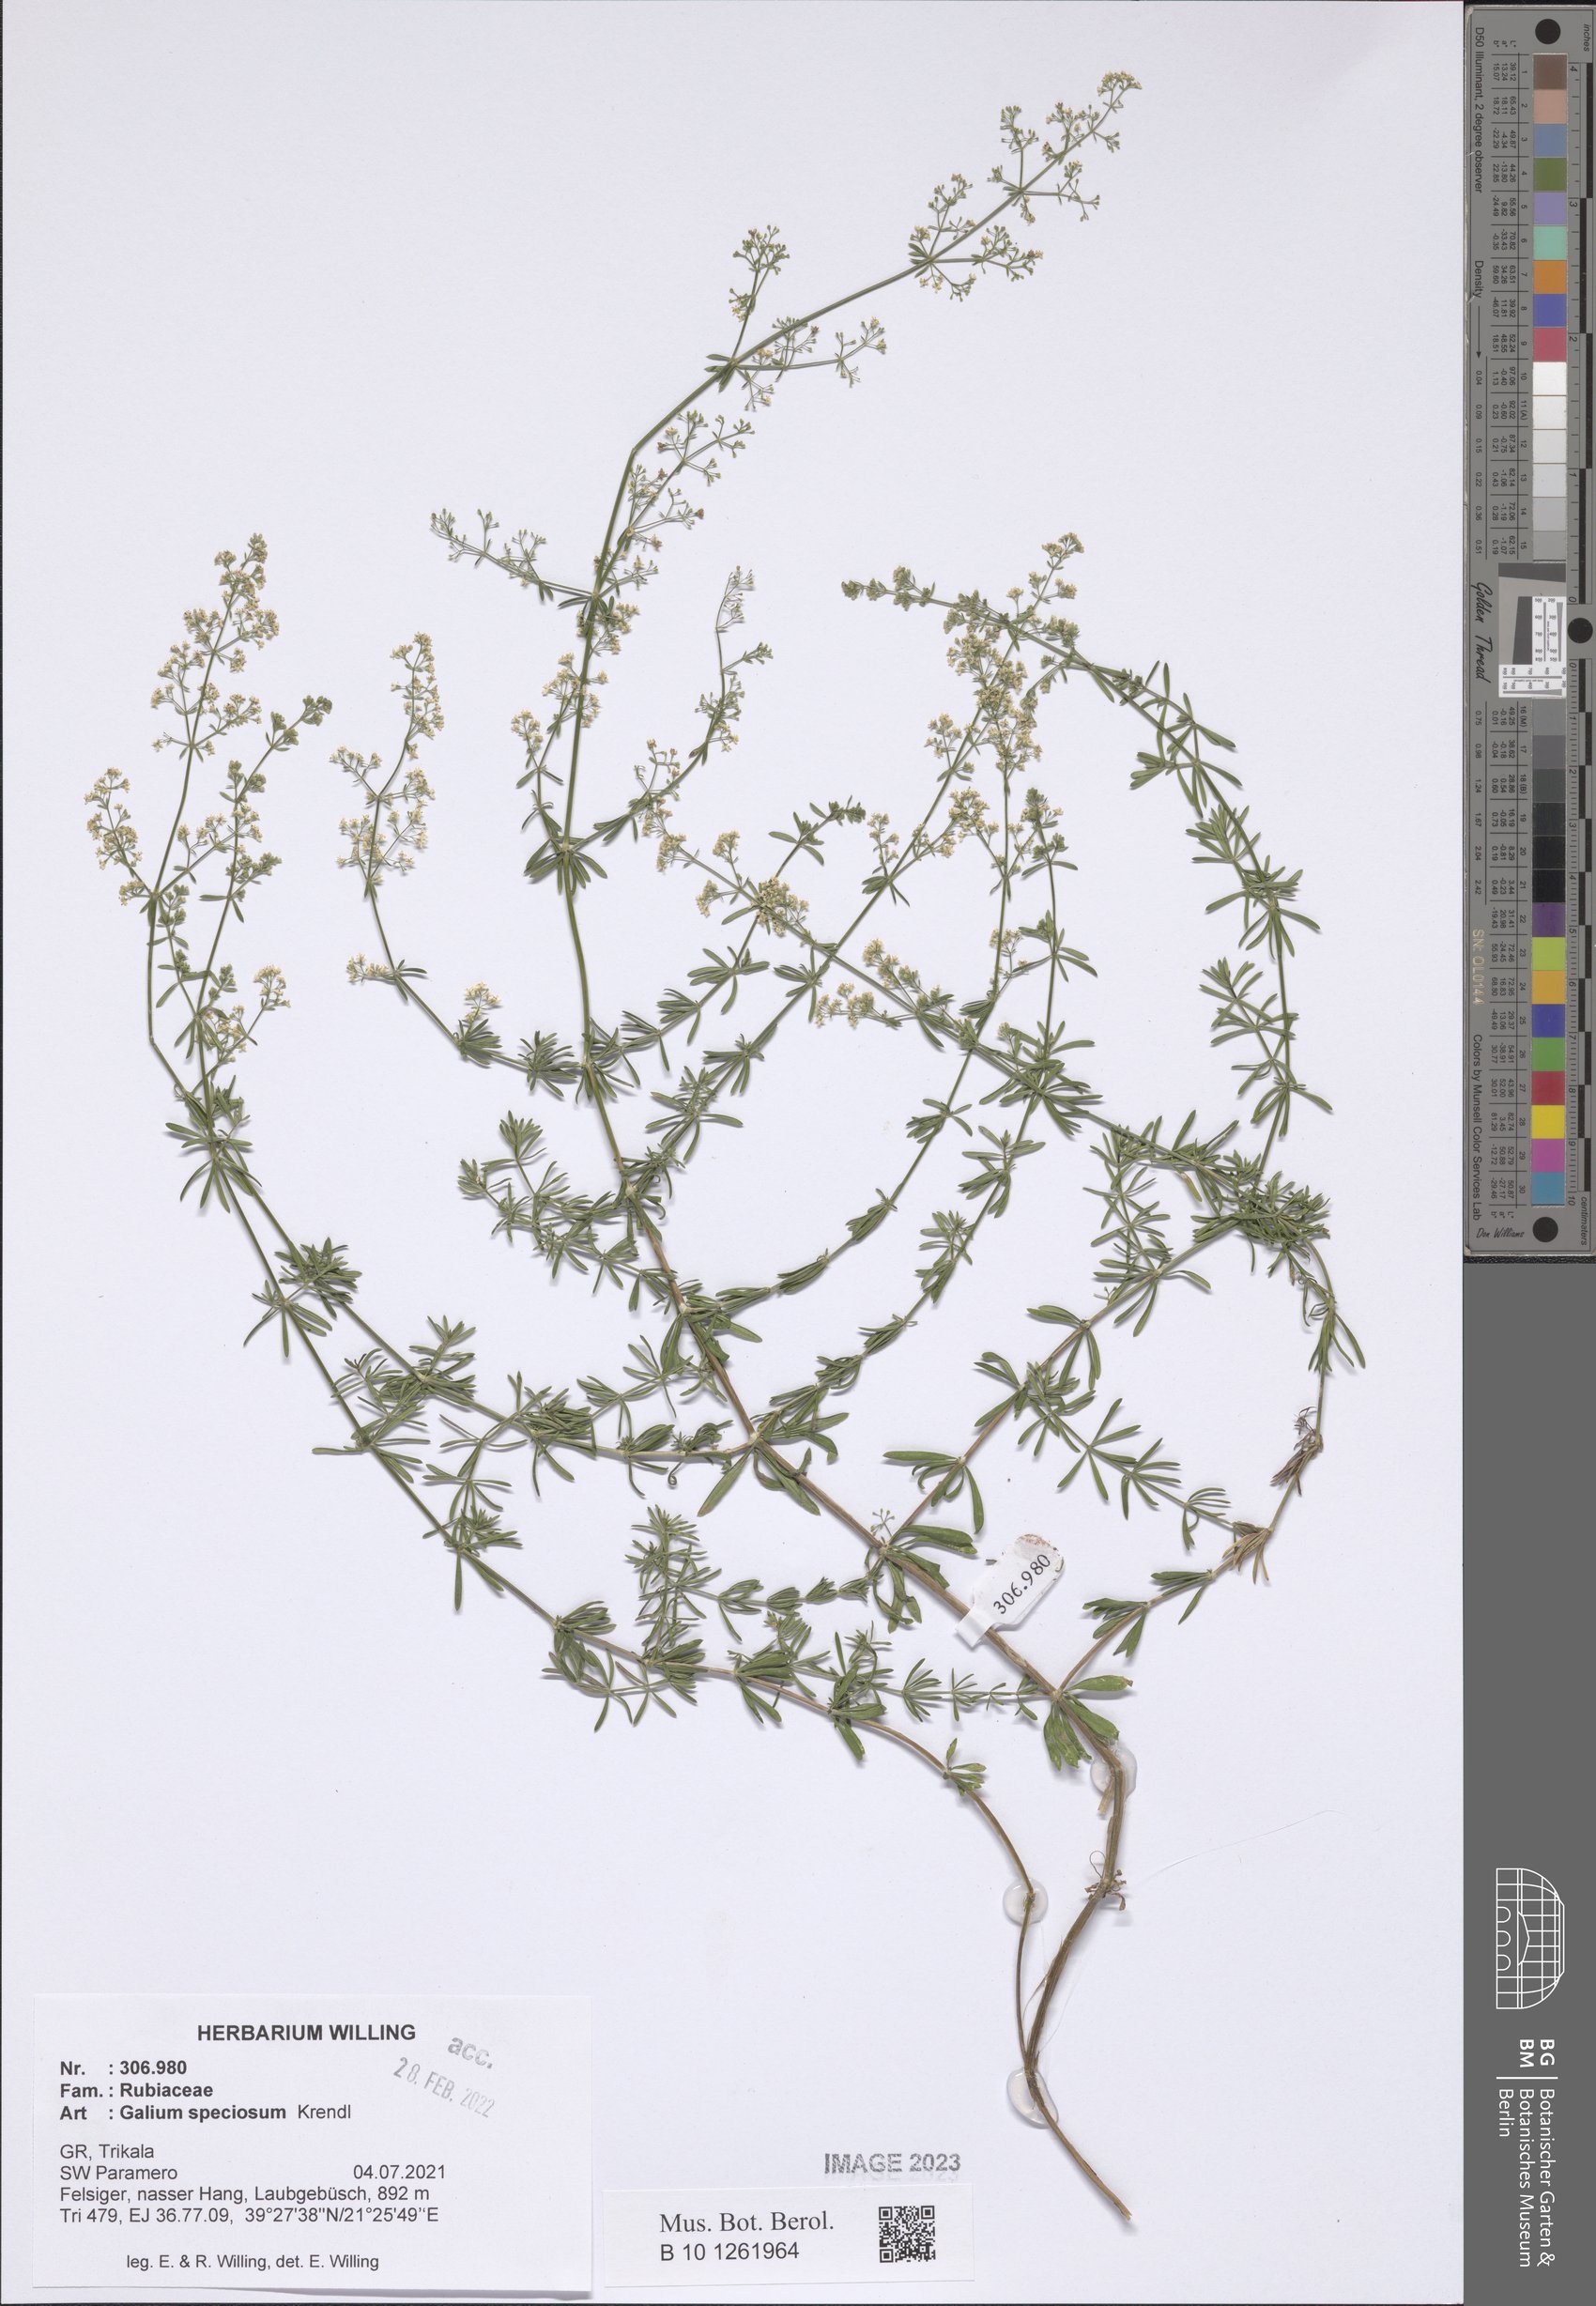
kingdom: Plantae
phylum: Tracheophyta
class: Magnoliopsida
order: Gentianales
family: Rubiaceae
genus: Galium
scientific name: Galium speciosum
